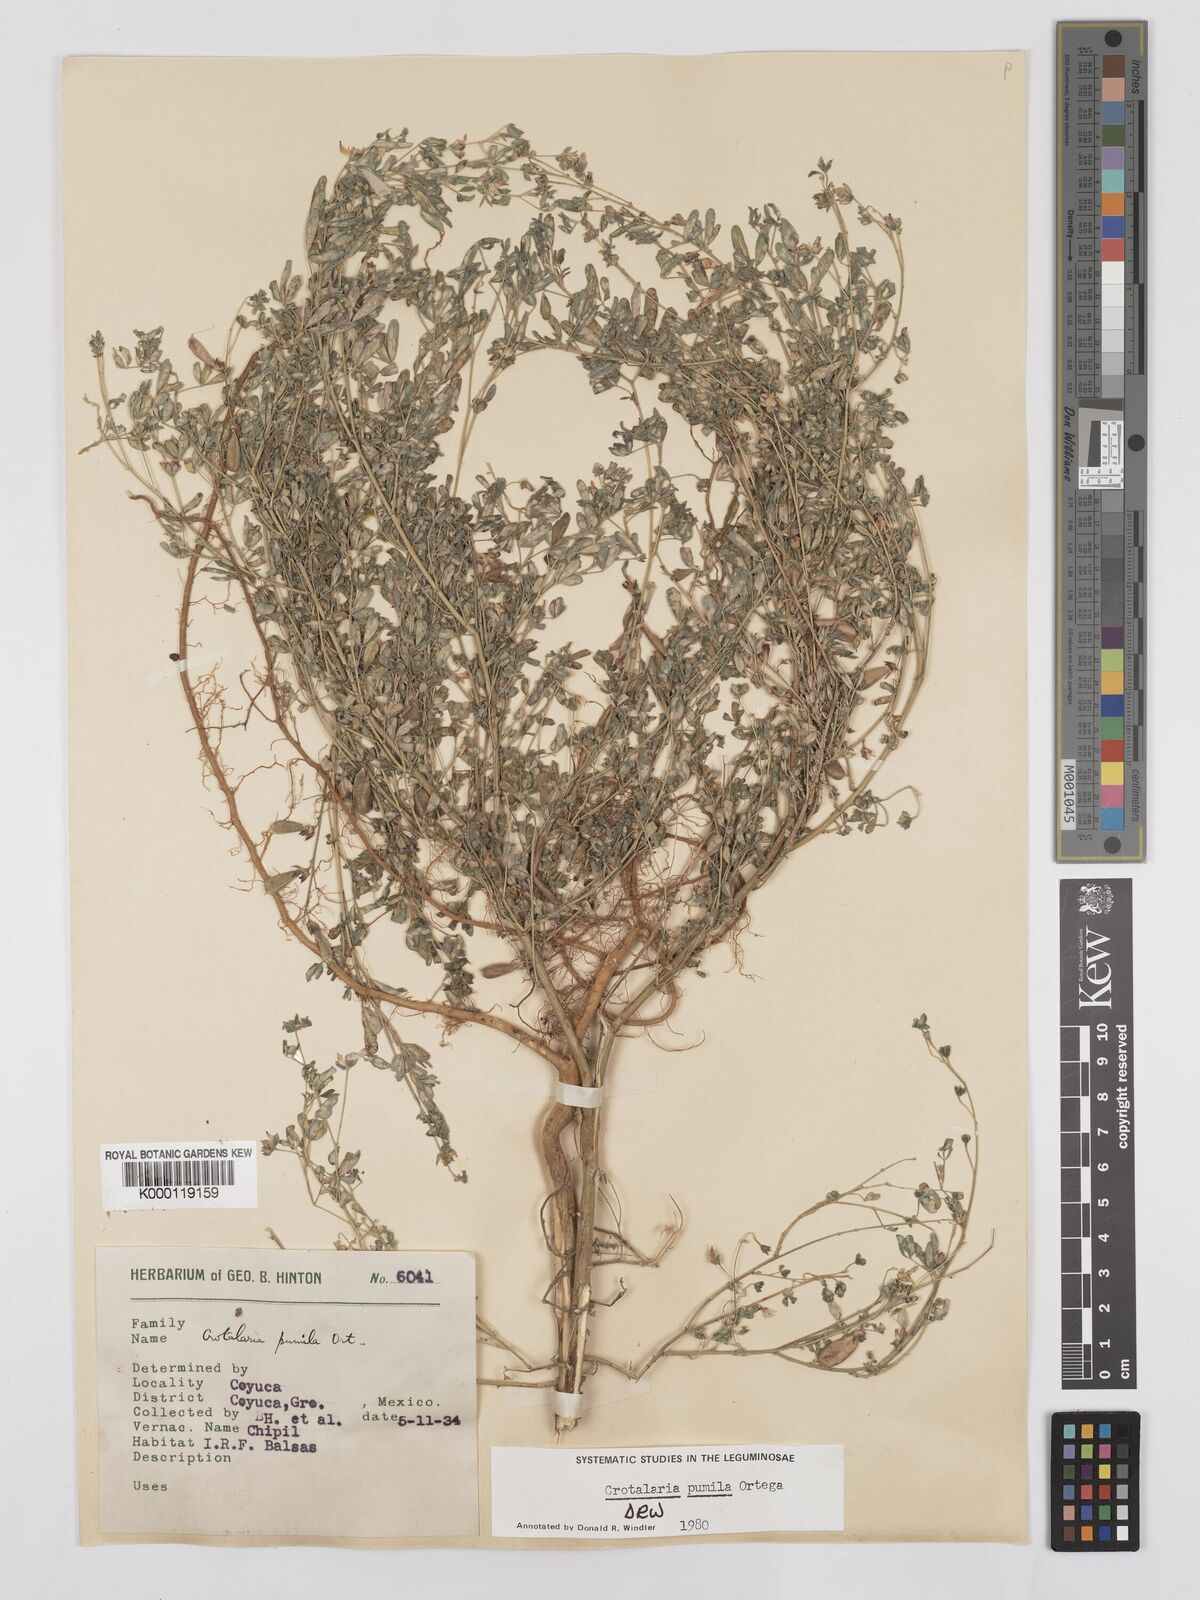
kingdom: Plantae
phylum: Tracheophyta
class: Magnoliopsida
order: Fabales
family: Fabaceae
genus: Crotalaria
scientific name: Crotalaria pumila
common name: Low rattlebox
